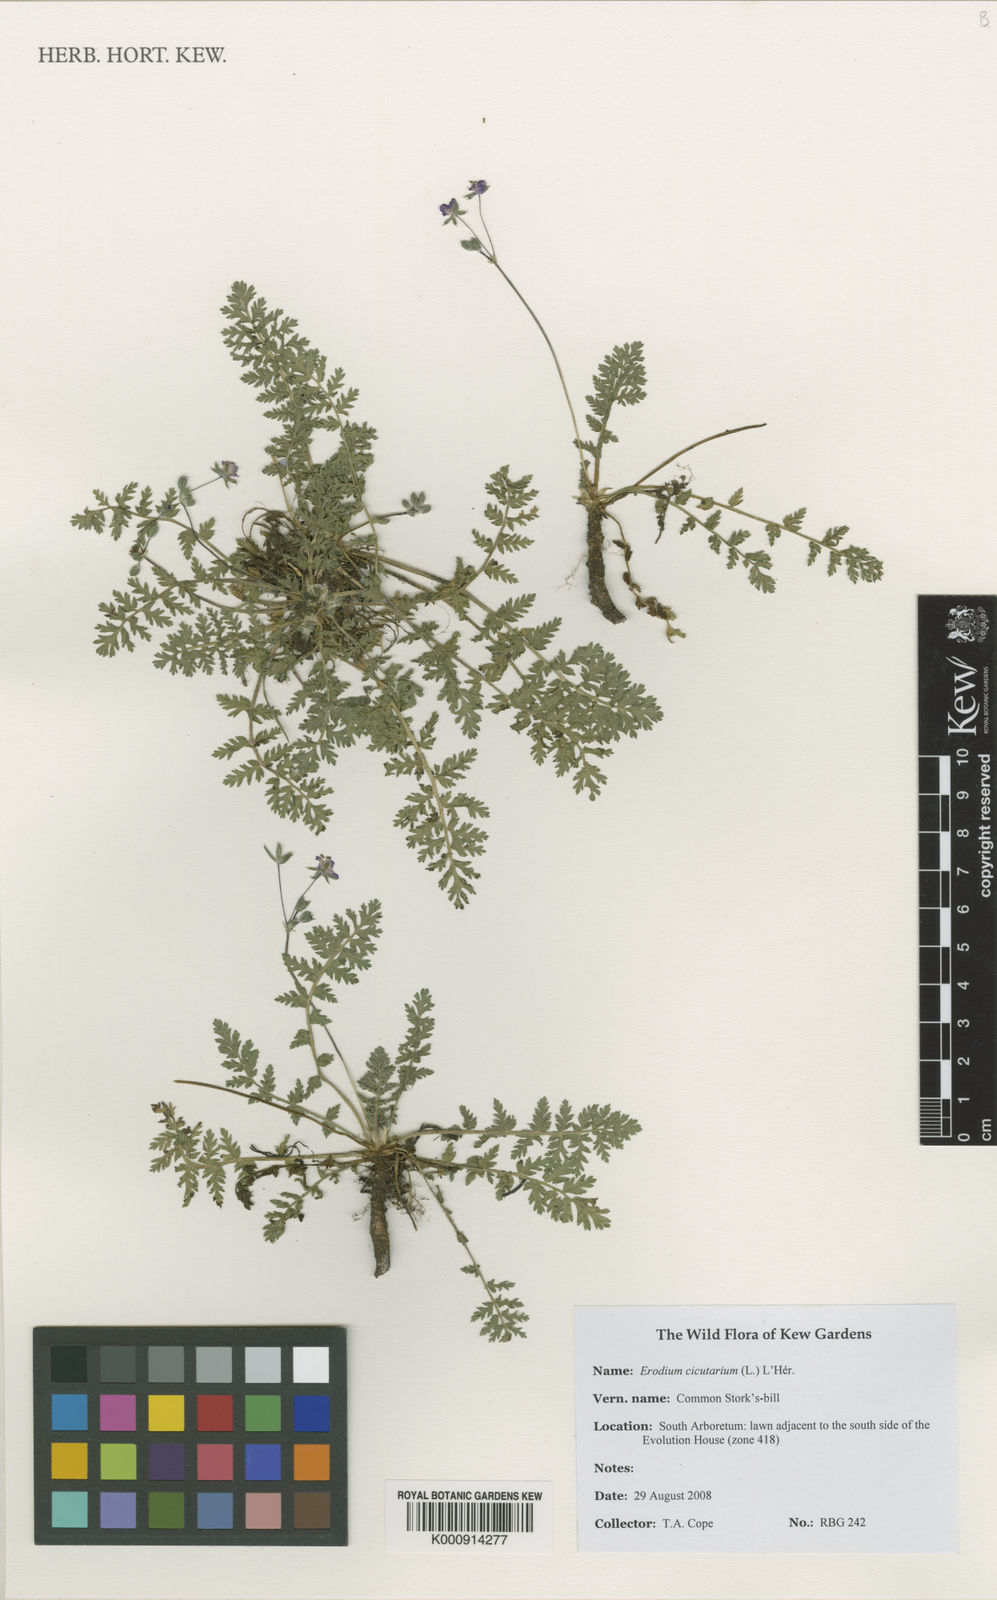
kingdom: Plantae
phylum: Tracheophyta
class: Magnoliopsida
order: Geraniales
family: Geraniaceae
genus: Erodium
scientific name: Erodium
